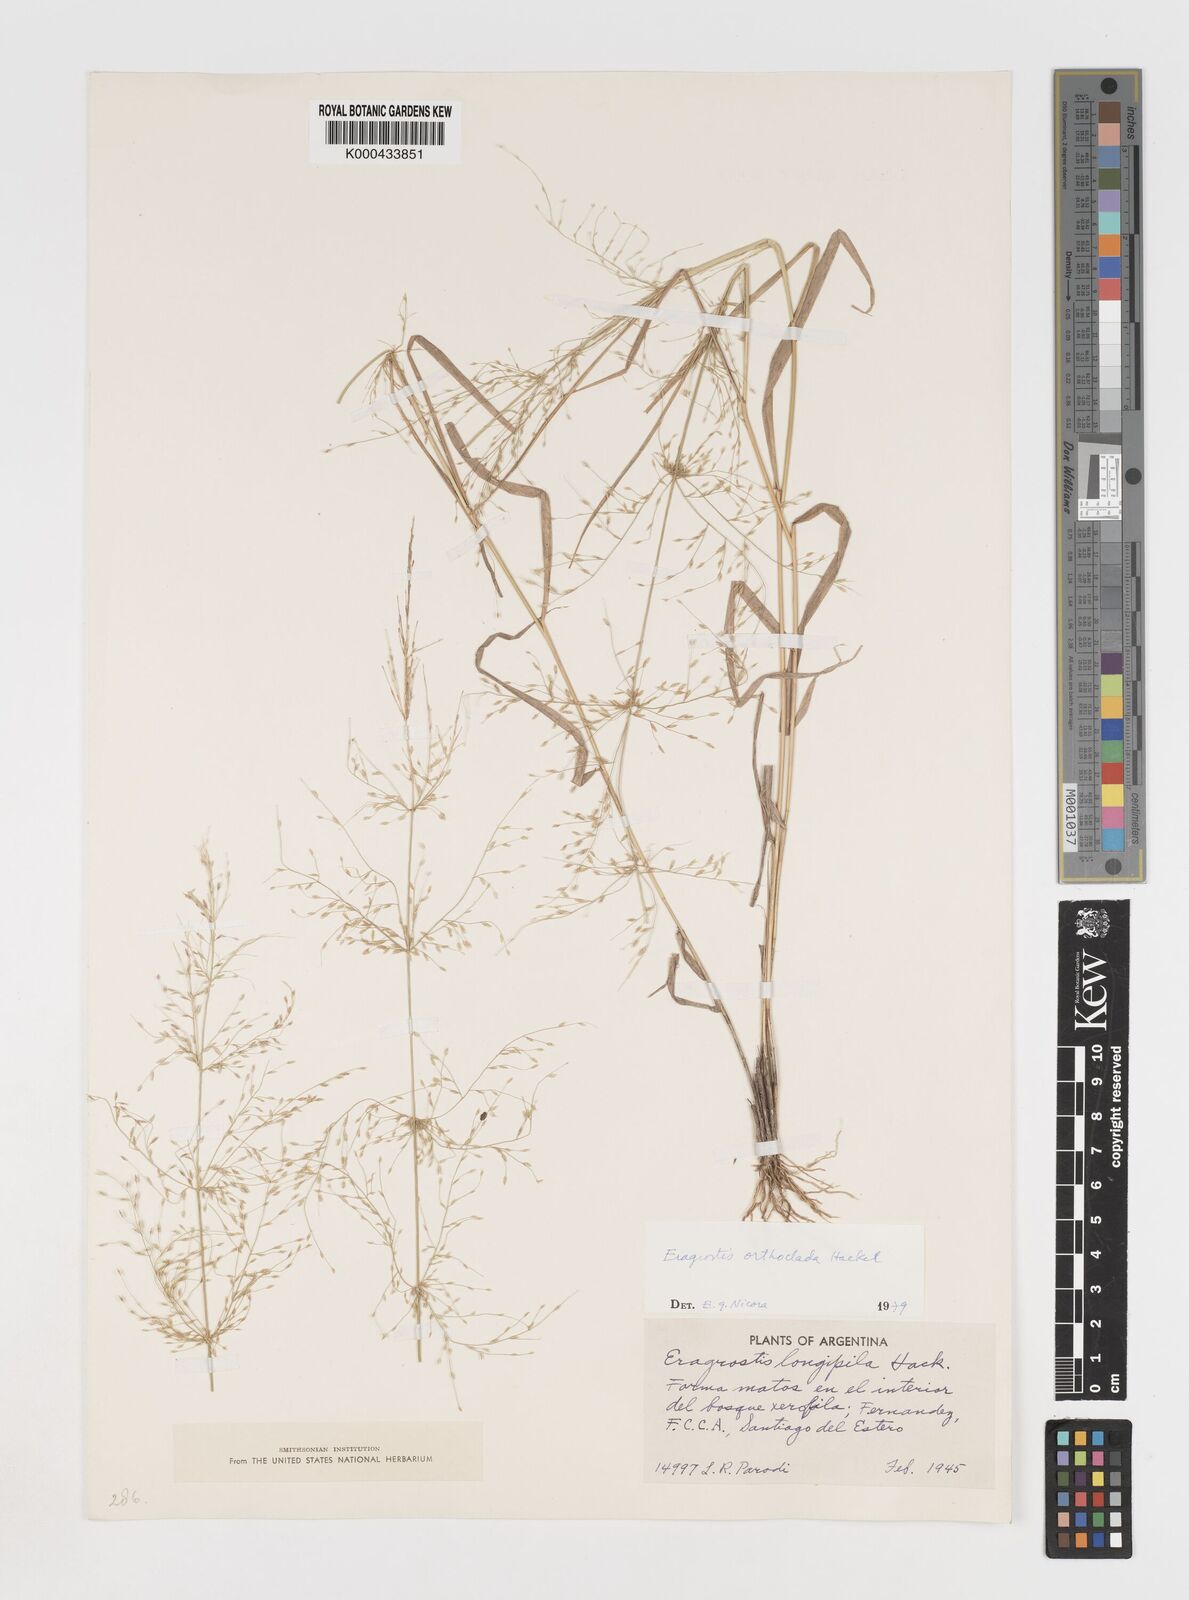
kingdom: Plantae
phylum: Tracheophyta
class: Liliopsida
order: Poales
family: Poaceae
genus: Eragrostis
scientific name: Eragrostis orthoclada
